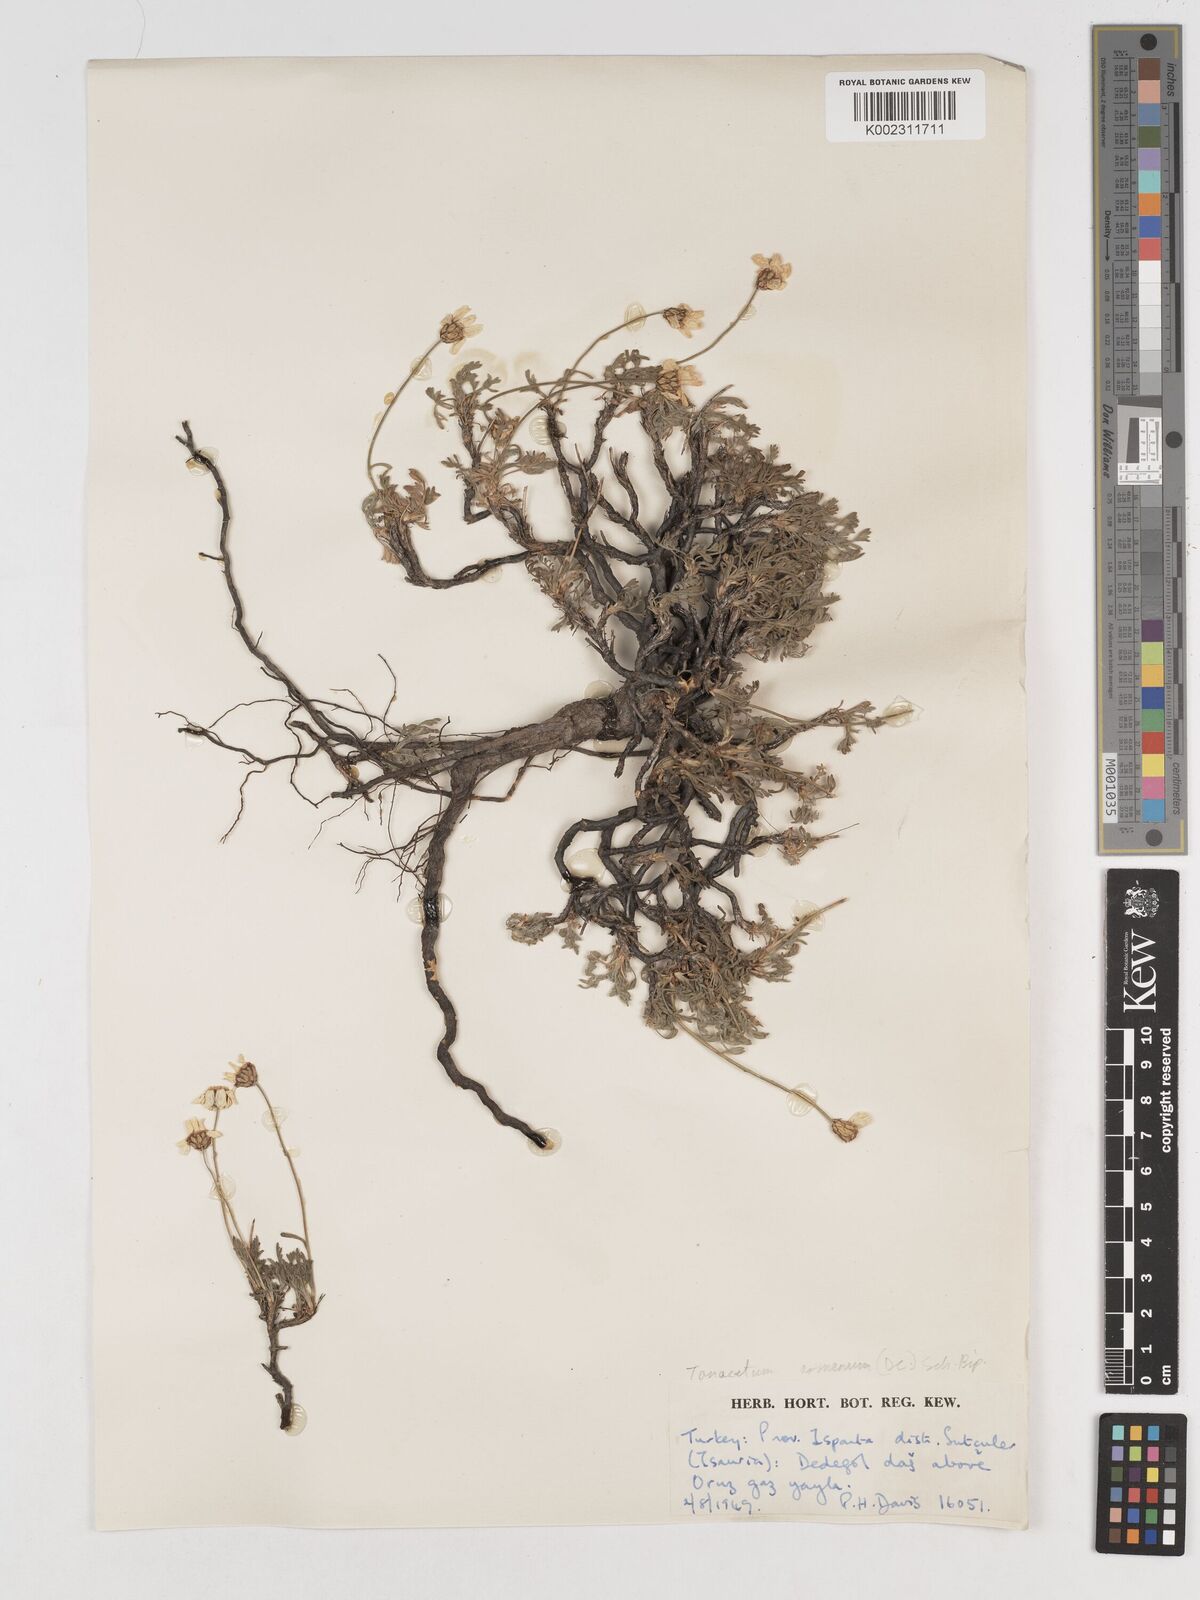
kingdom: Plantae
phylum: Tracheophyta
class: Magnoliopsida
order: Asterales
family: Asteraceae
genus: Tanacetum
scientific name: Tanacetum armenum
